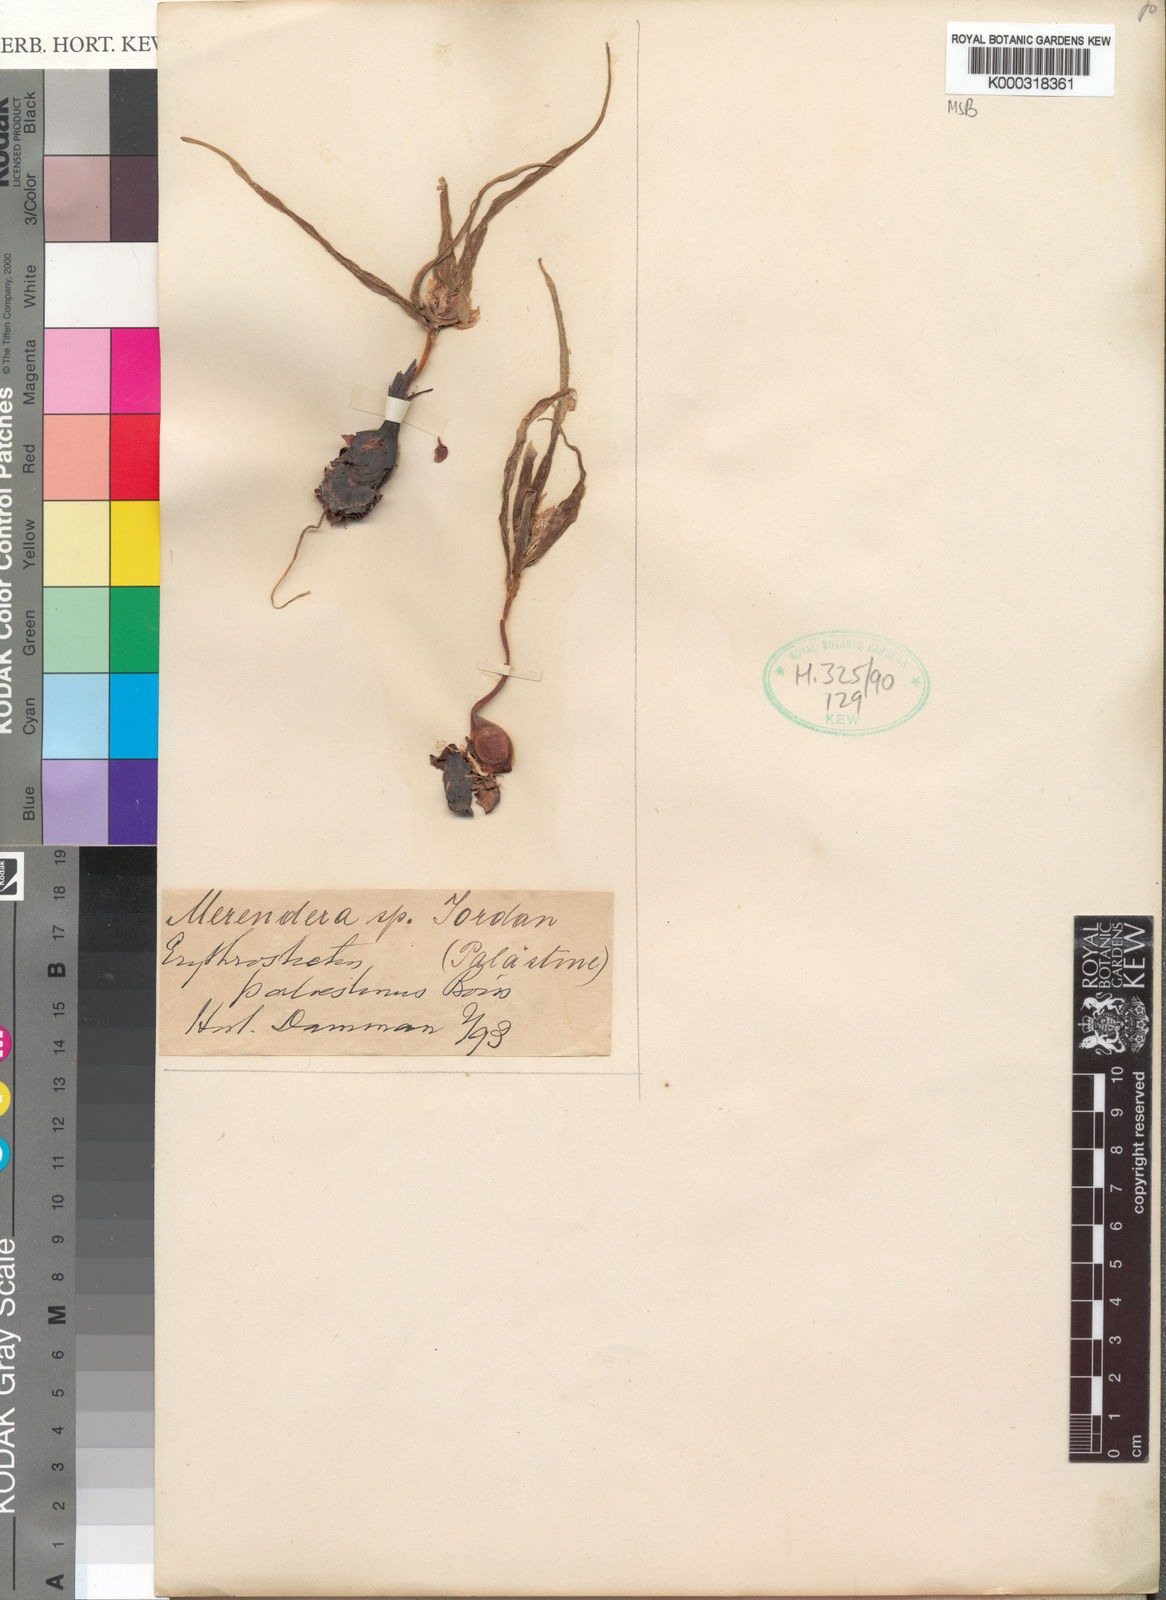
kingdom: Plantae
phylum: Tracheophyta
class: Liliopsida
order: Liliales
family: Colchicaceae
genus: Colchicum
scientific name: Colchicum palaestinum
